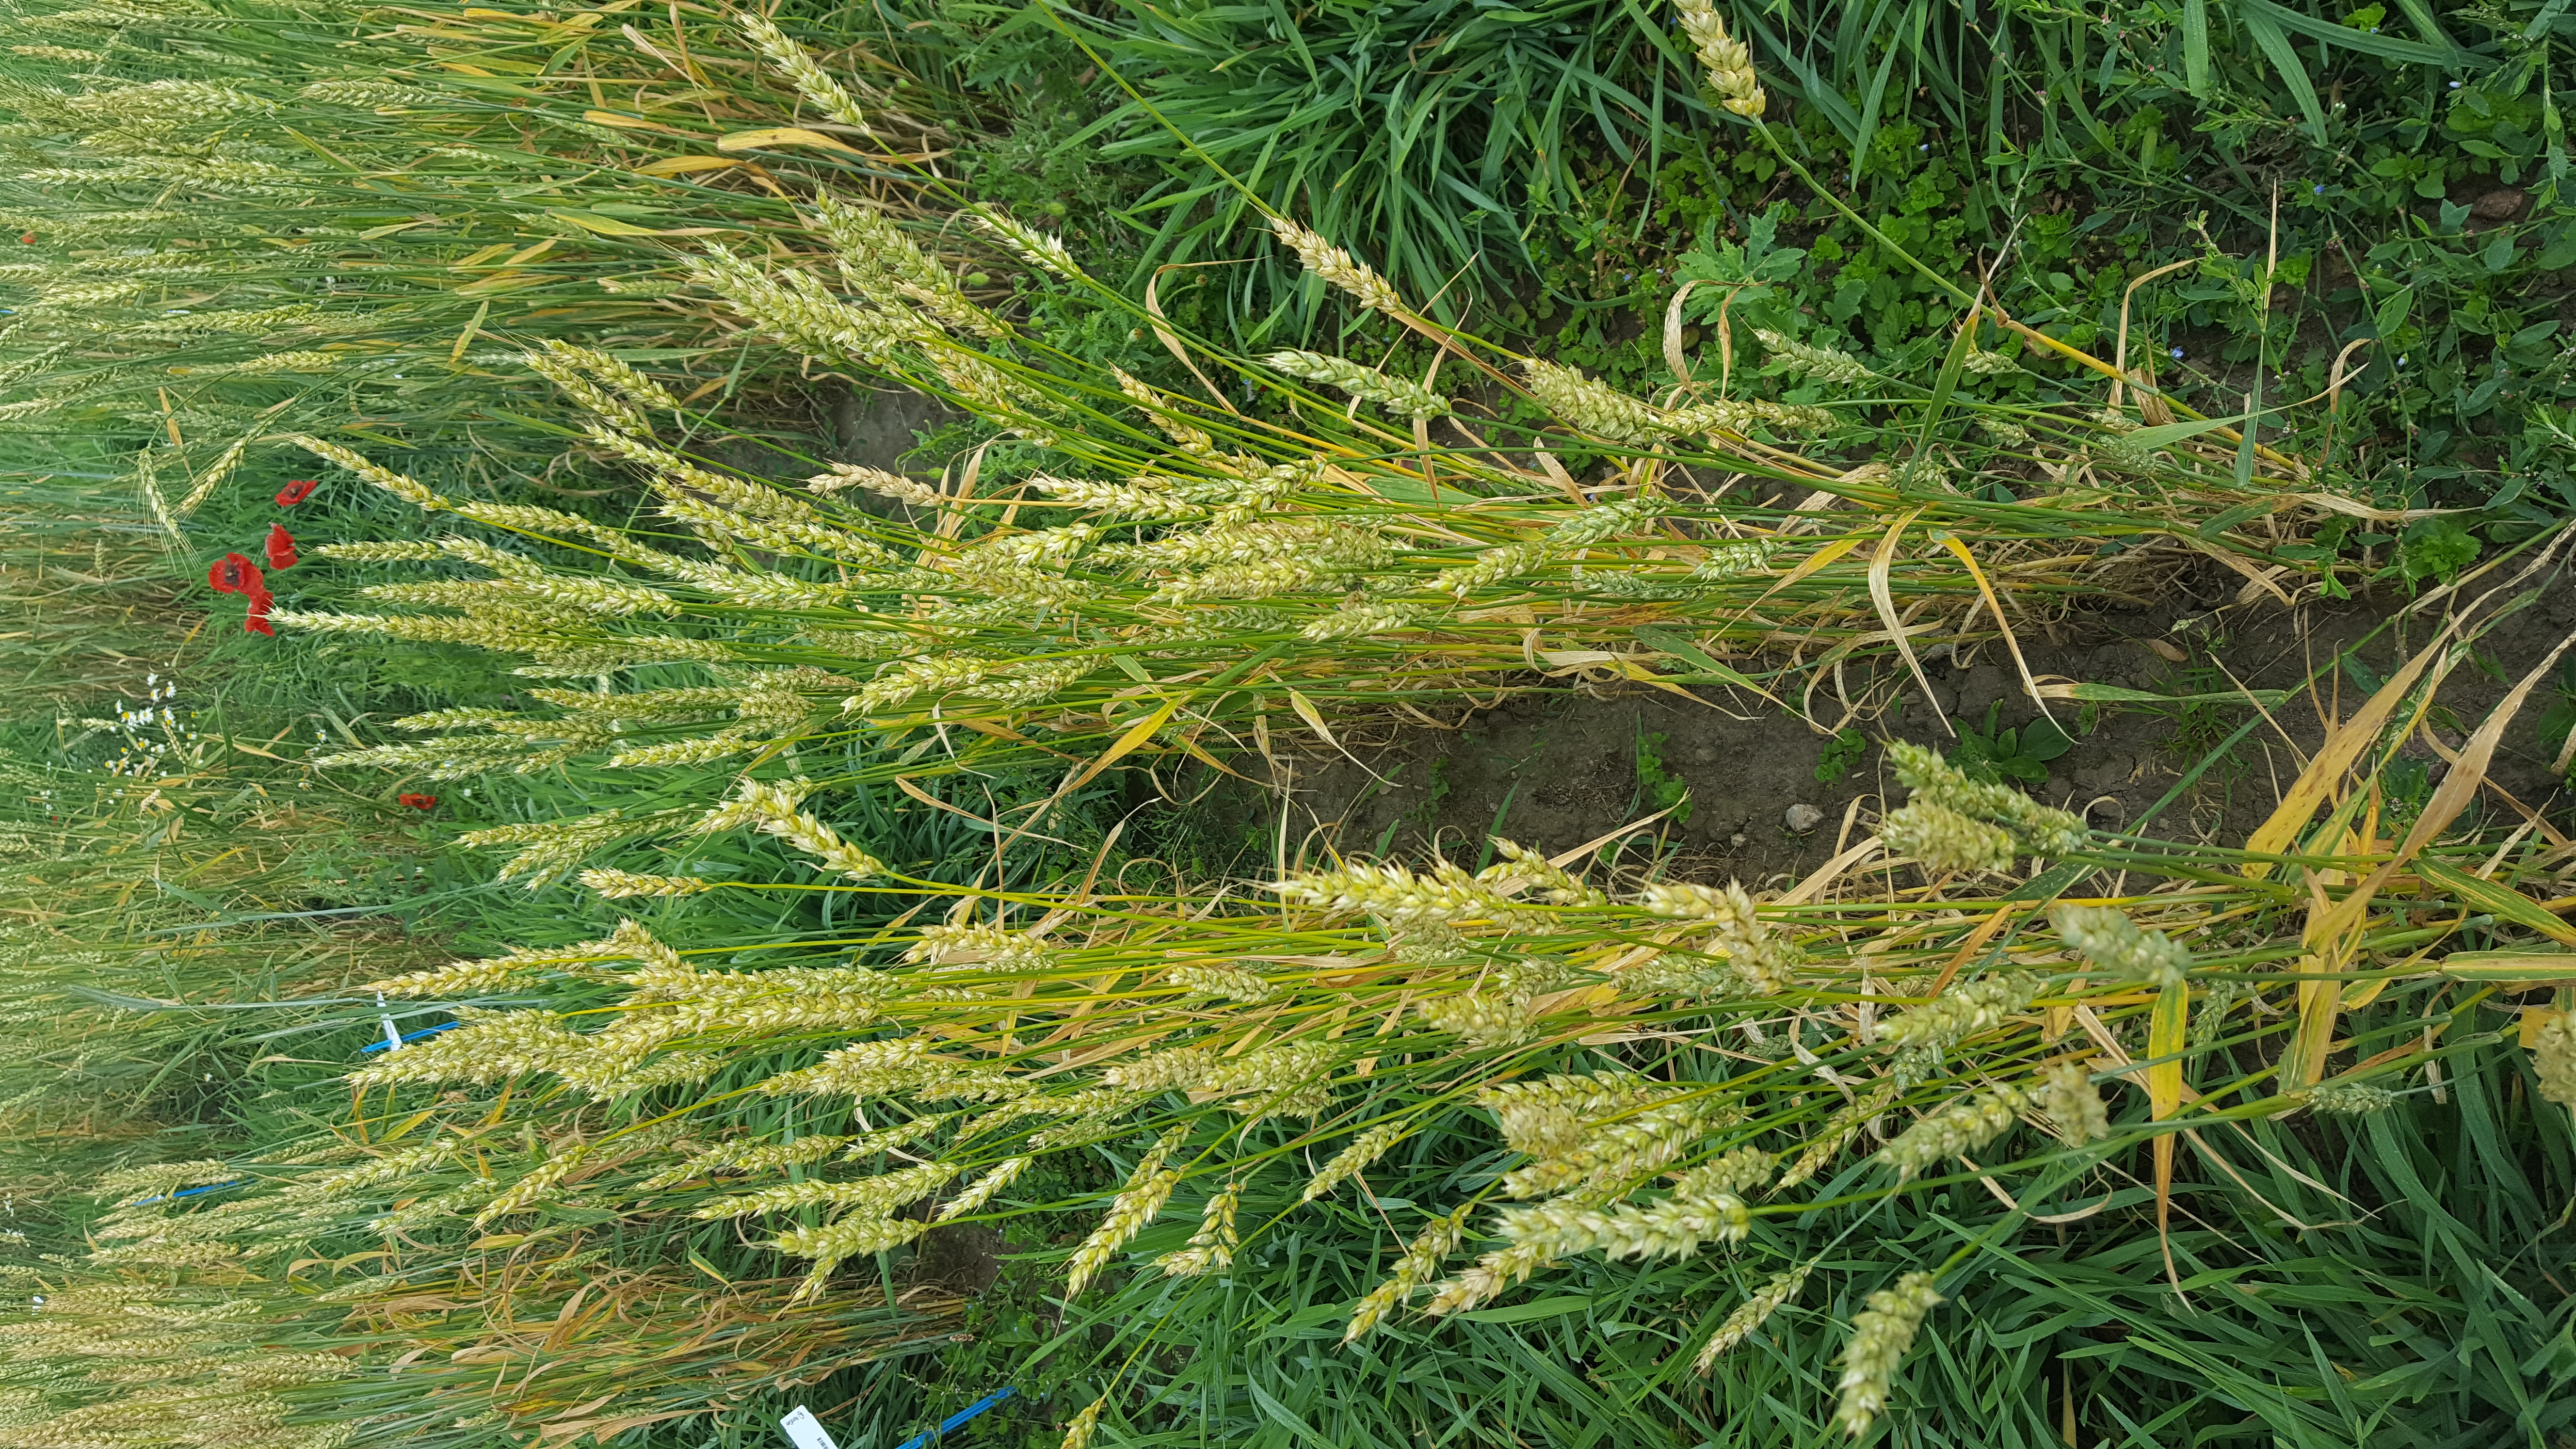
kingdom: Plantae
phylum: Tracheophyta
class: Liliopsida
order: Poales
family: Poaceae
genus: Triticum
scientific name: Triticum aestivum
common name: Common wheat
